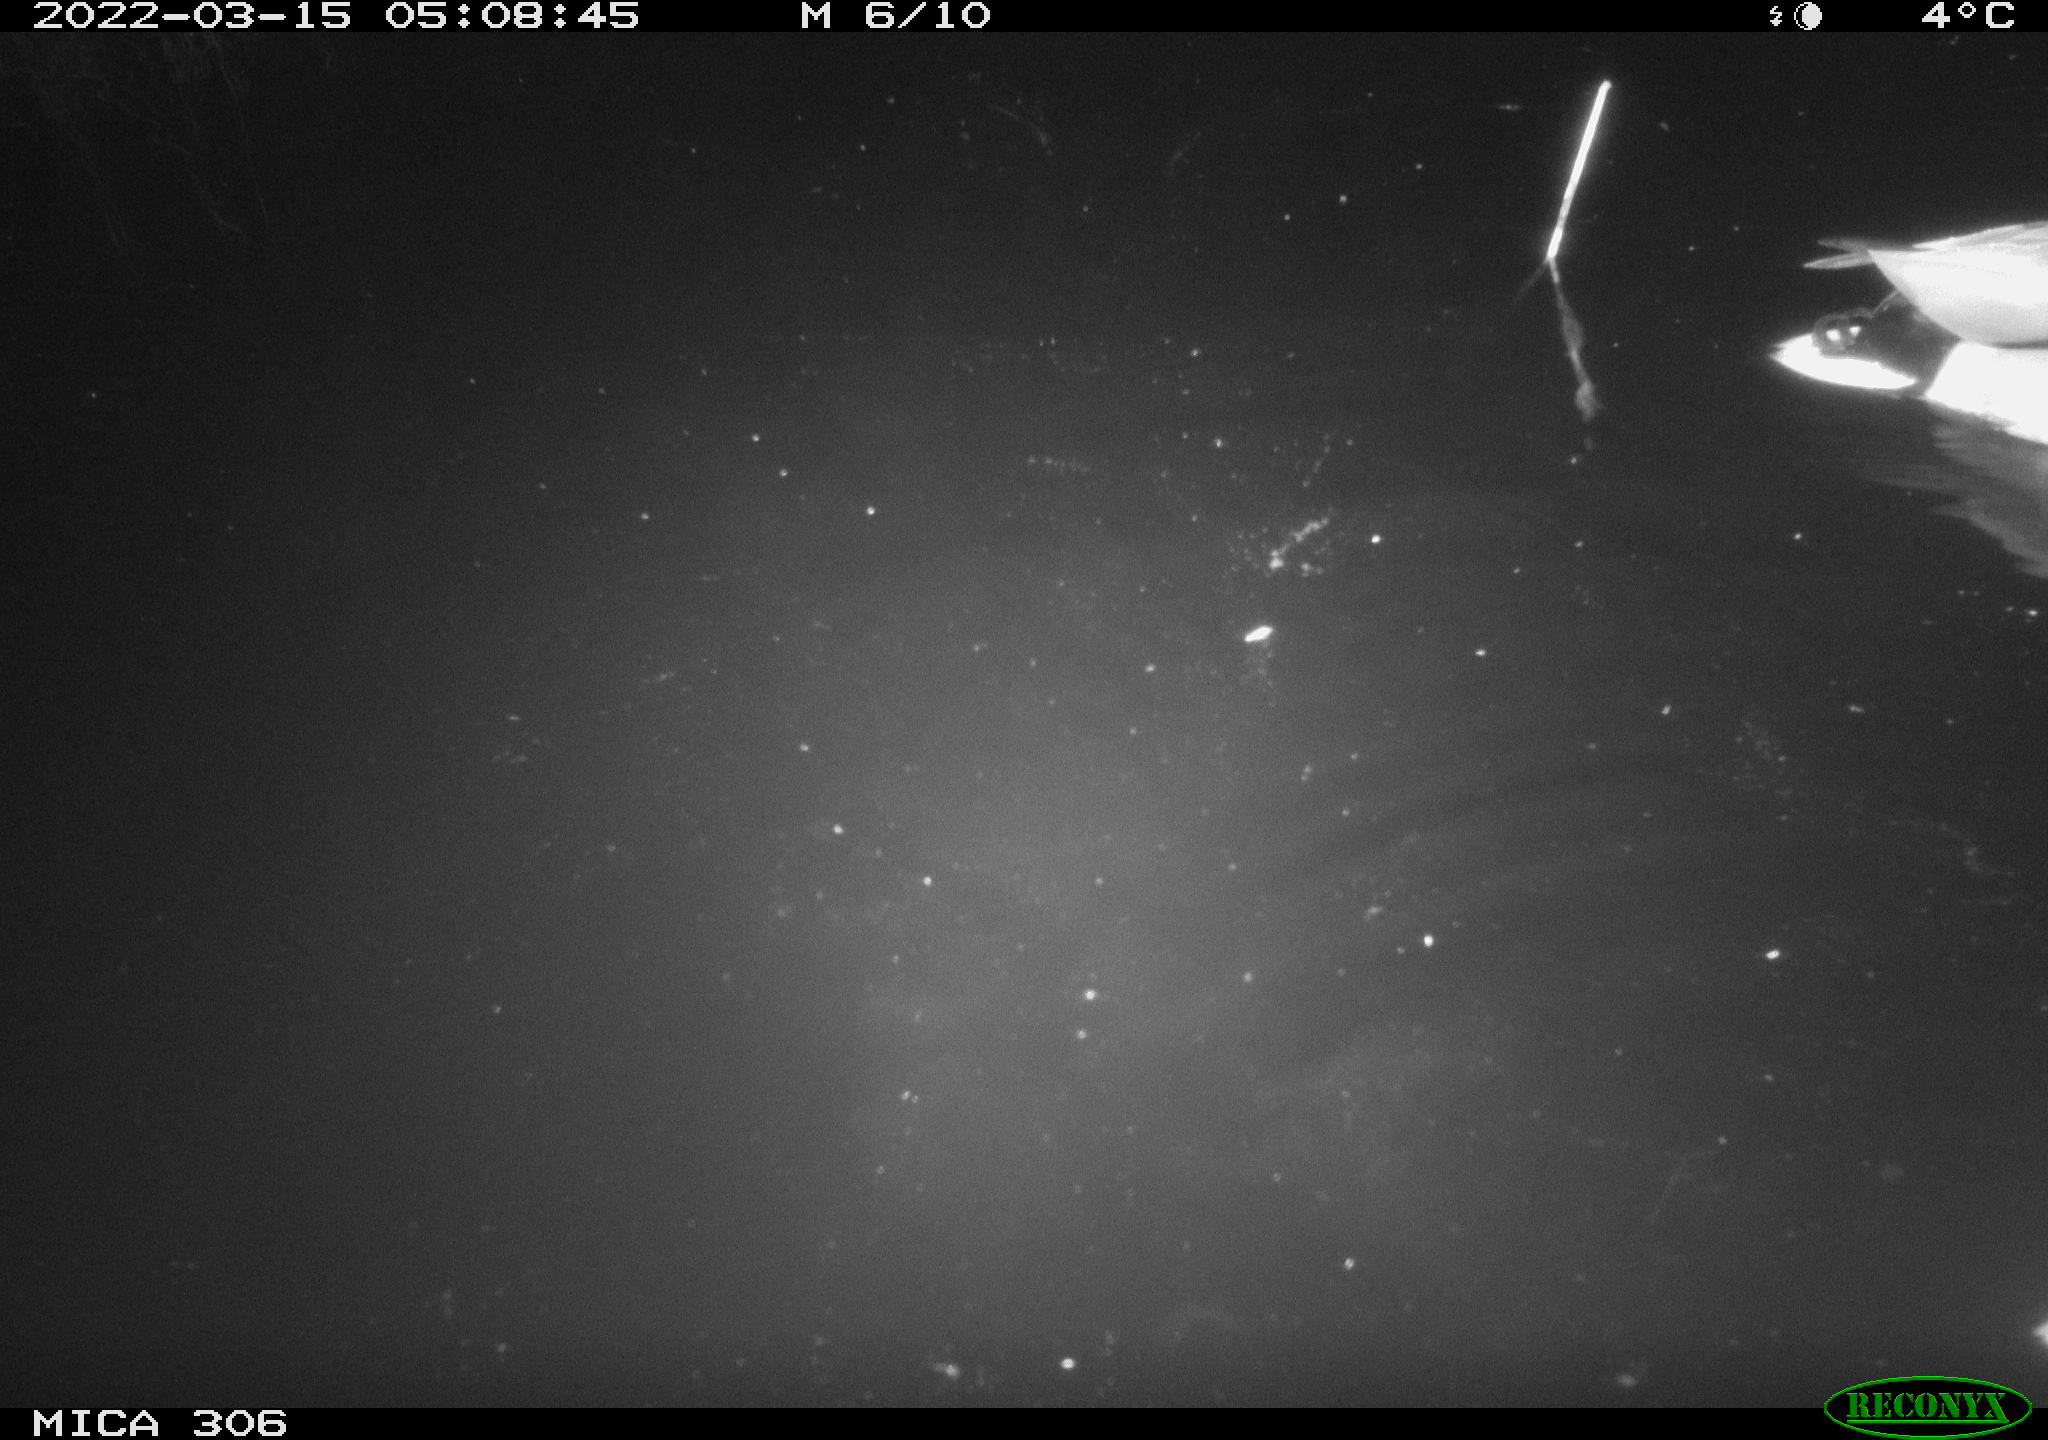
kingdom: Animalia
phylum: Chordata
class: Aves
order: Anseriformes
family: Anatidae
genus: Anas
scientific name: Anas platyrhynchos
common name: Mallard
